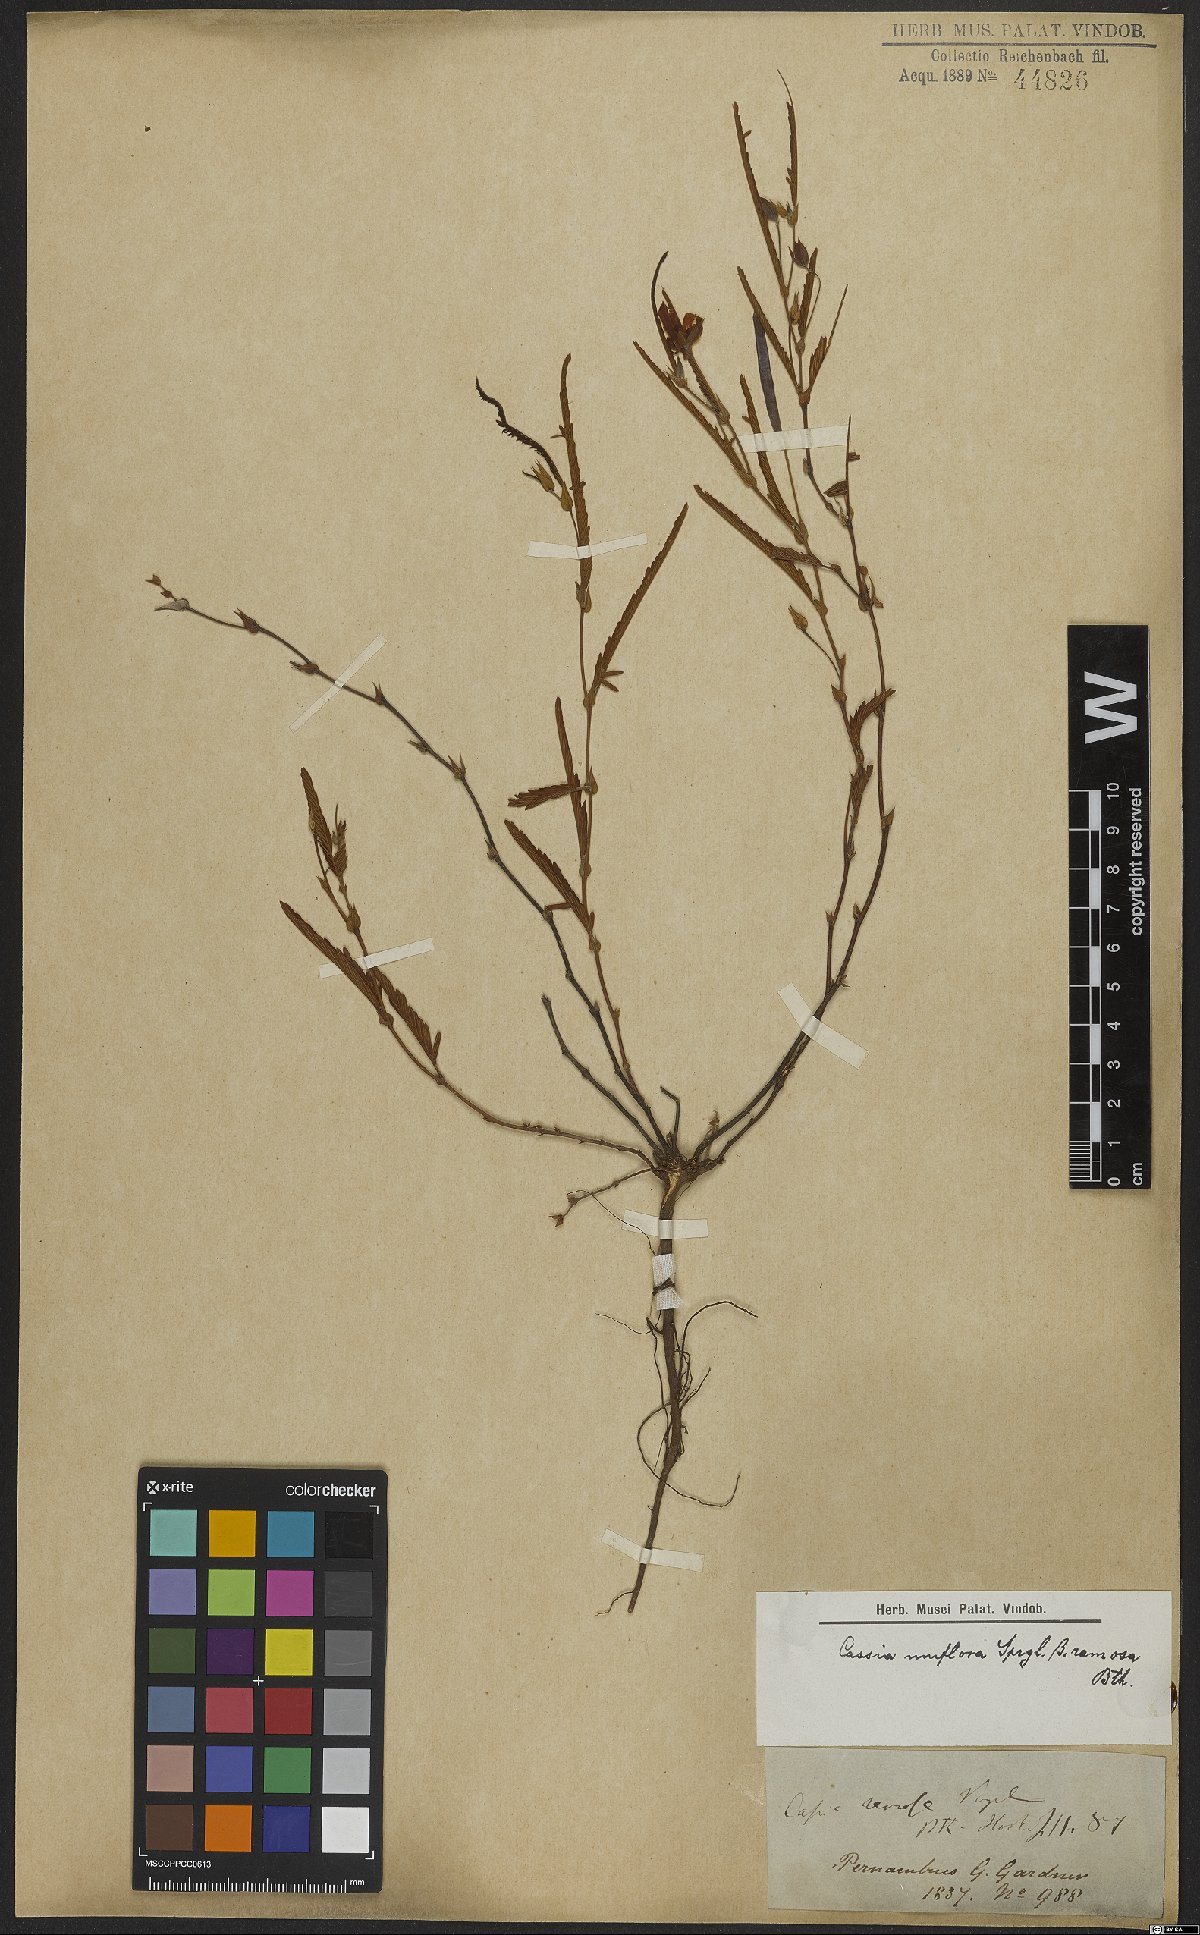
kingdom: Plantae
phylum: Tracheophyta
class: Magnoliopsida
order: Fabales
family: Fabaceae
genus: Senna
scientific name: Senna uniflora
